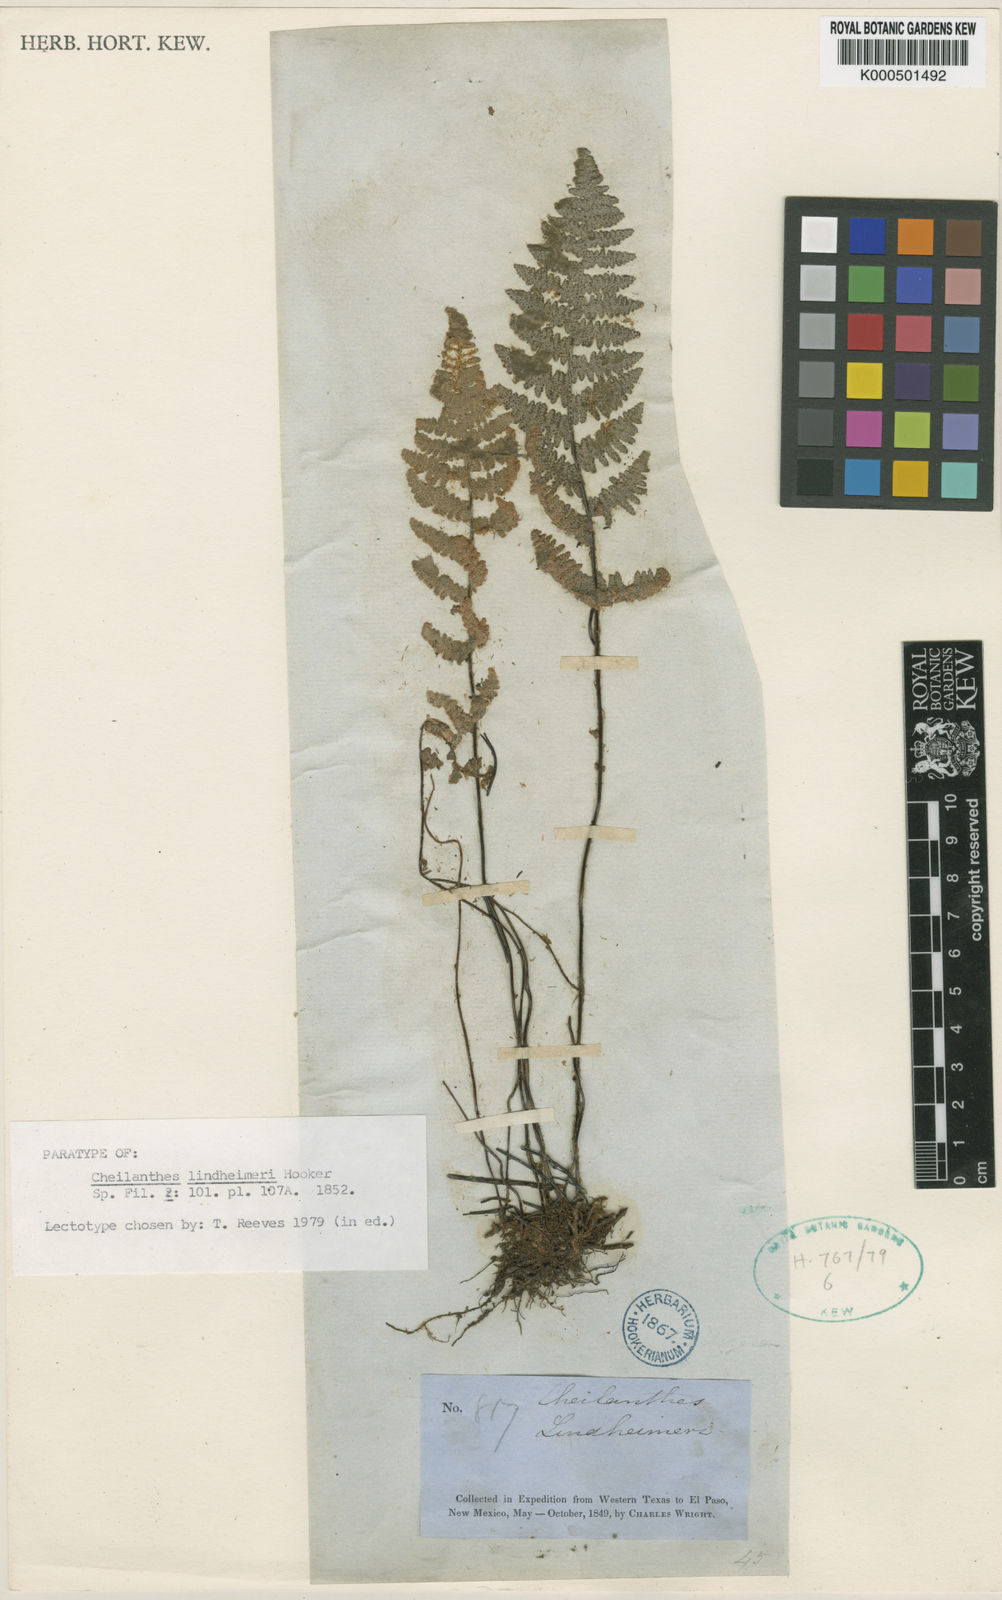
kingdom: Plantae
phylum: Tracheophyta
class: Polypodiopsida
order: Polypodiales
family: Pteridaceae
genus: Myriopteris
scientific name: Myriopteris lindheimeri
